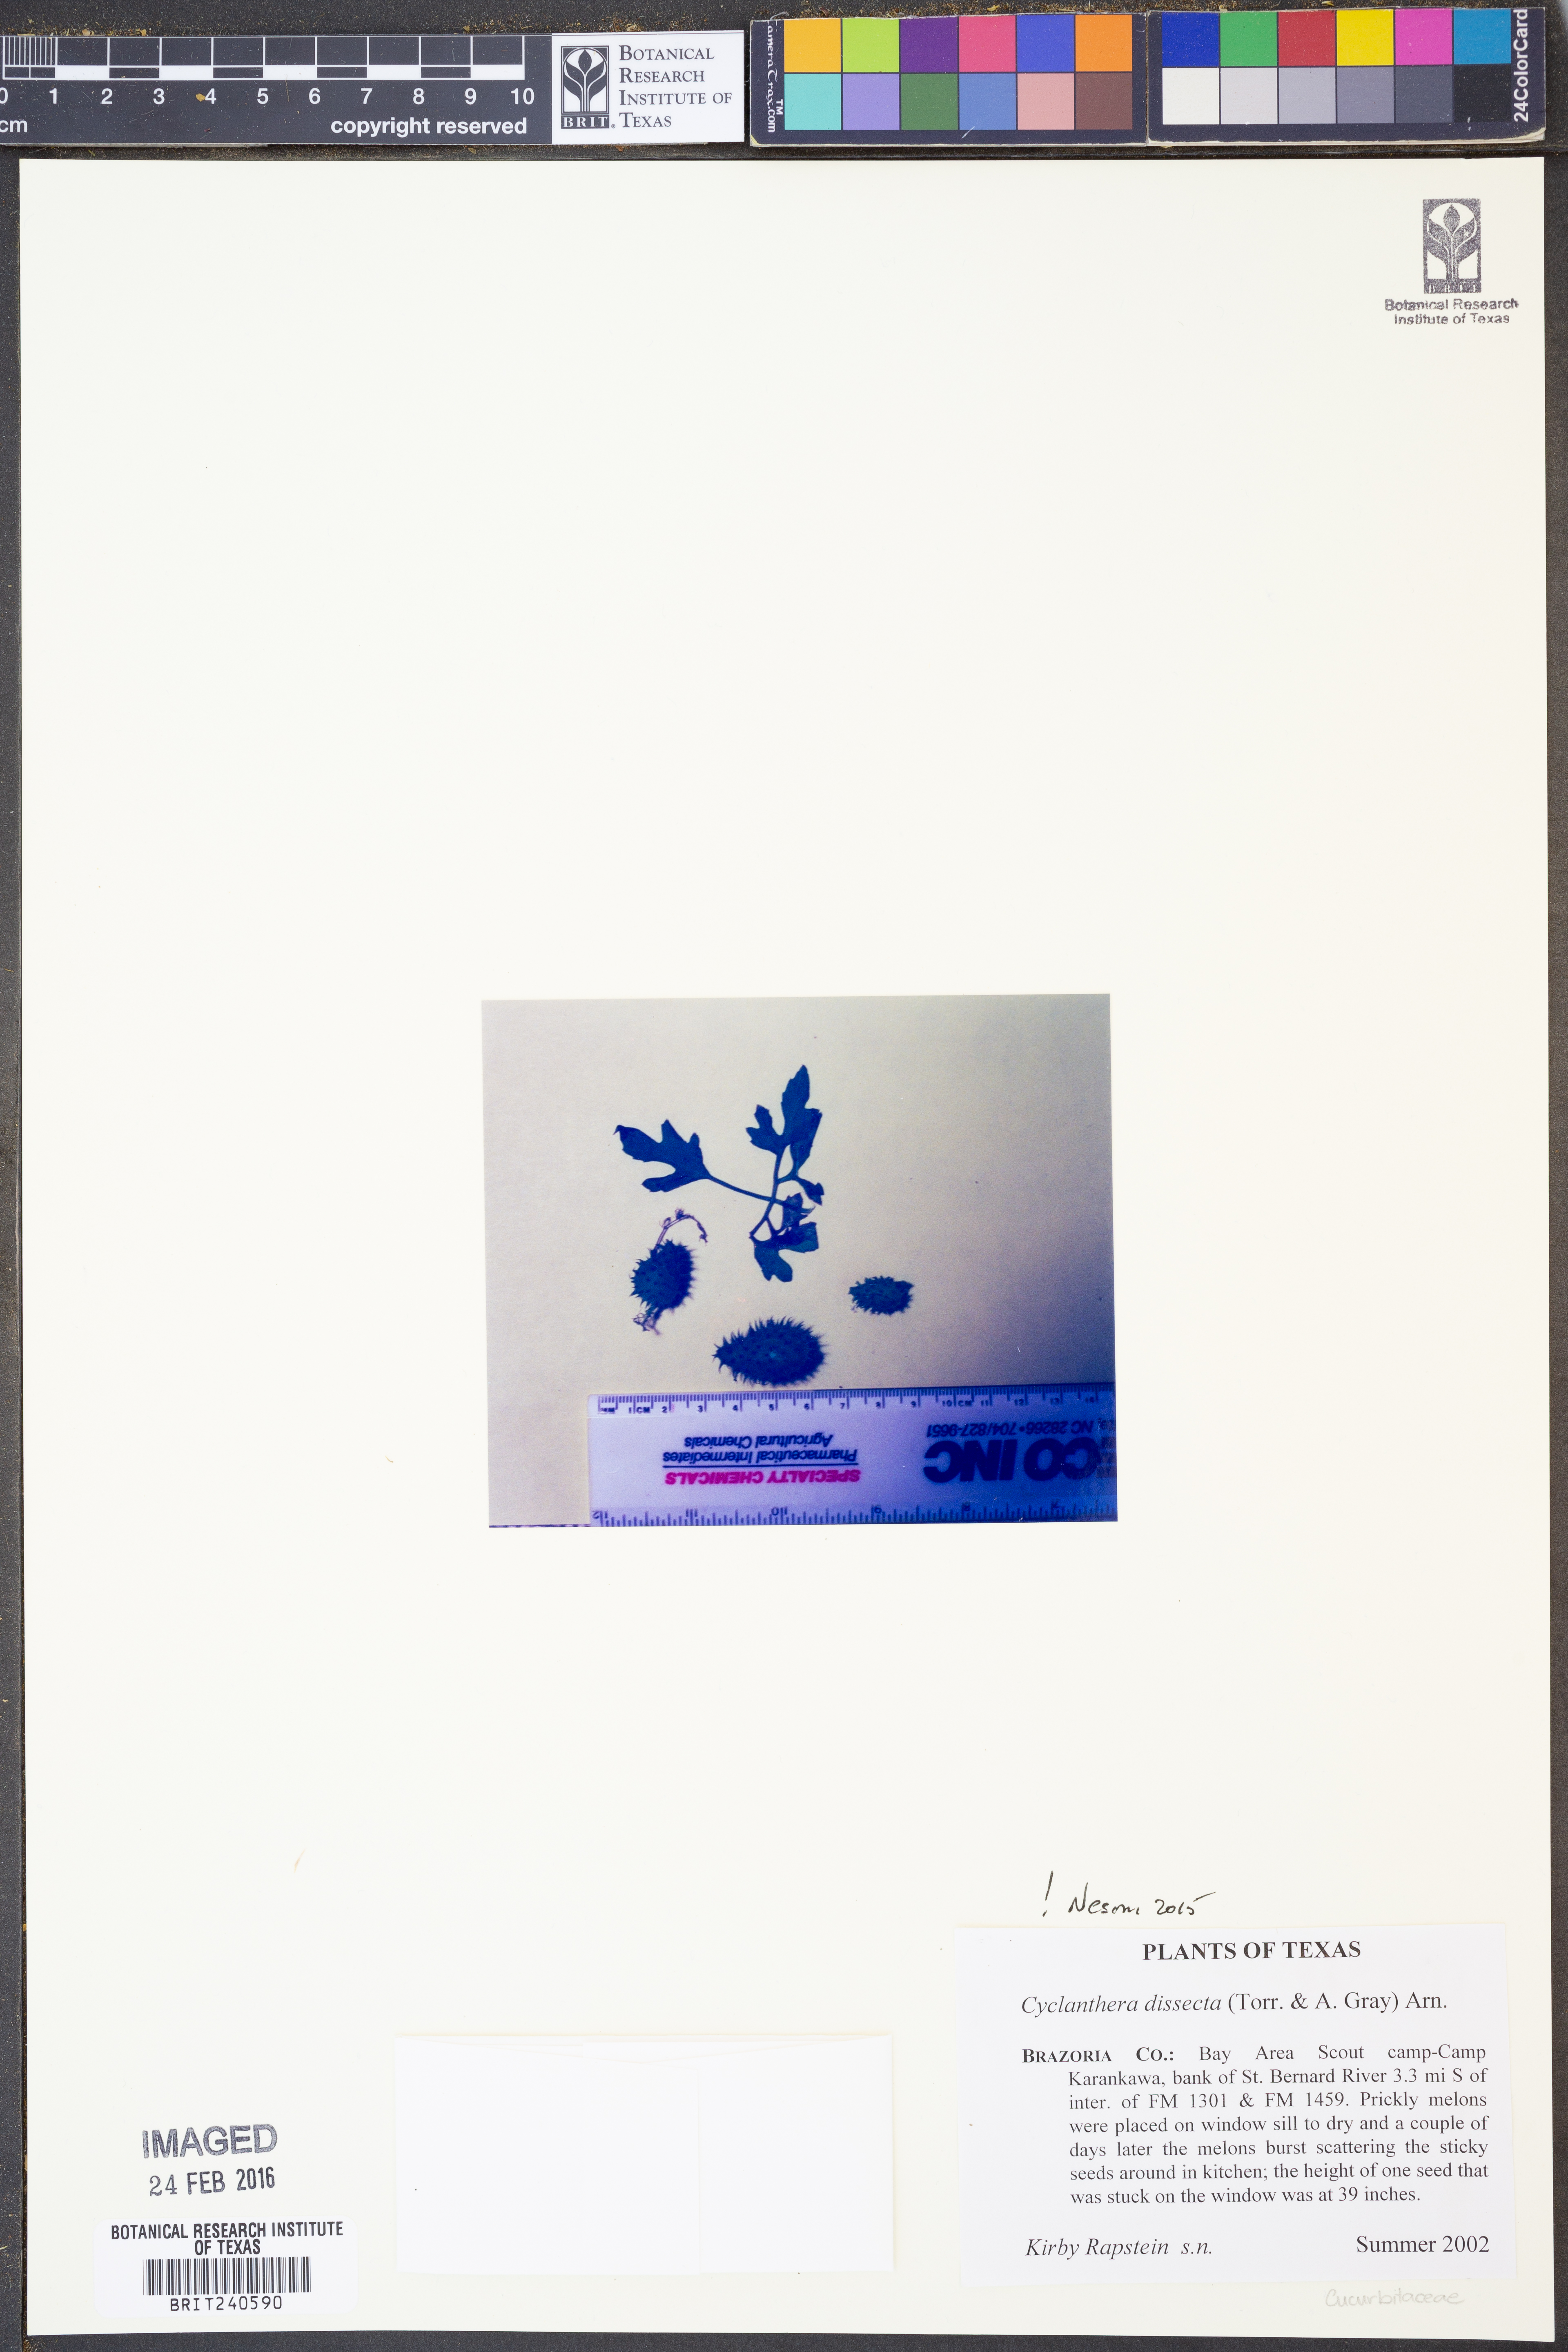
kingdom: Plantae
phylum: Tracheophyta
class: Magnoliopsida
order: Cucurbitales
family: Cucurbitaceae
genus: Cyclanthera
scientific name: Cyclanthera dissecta
